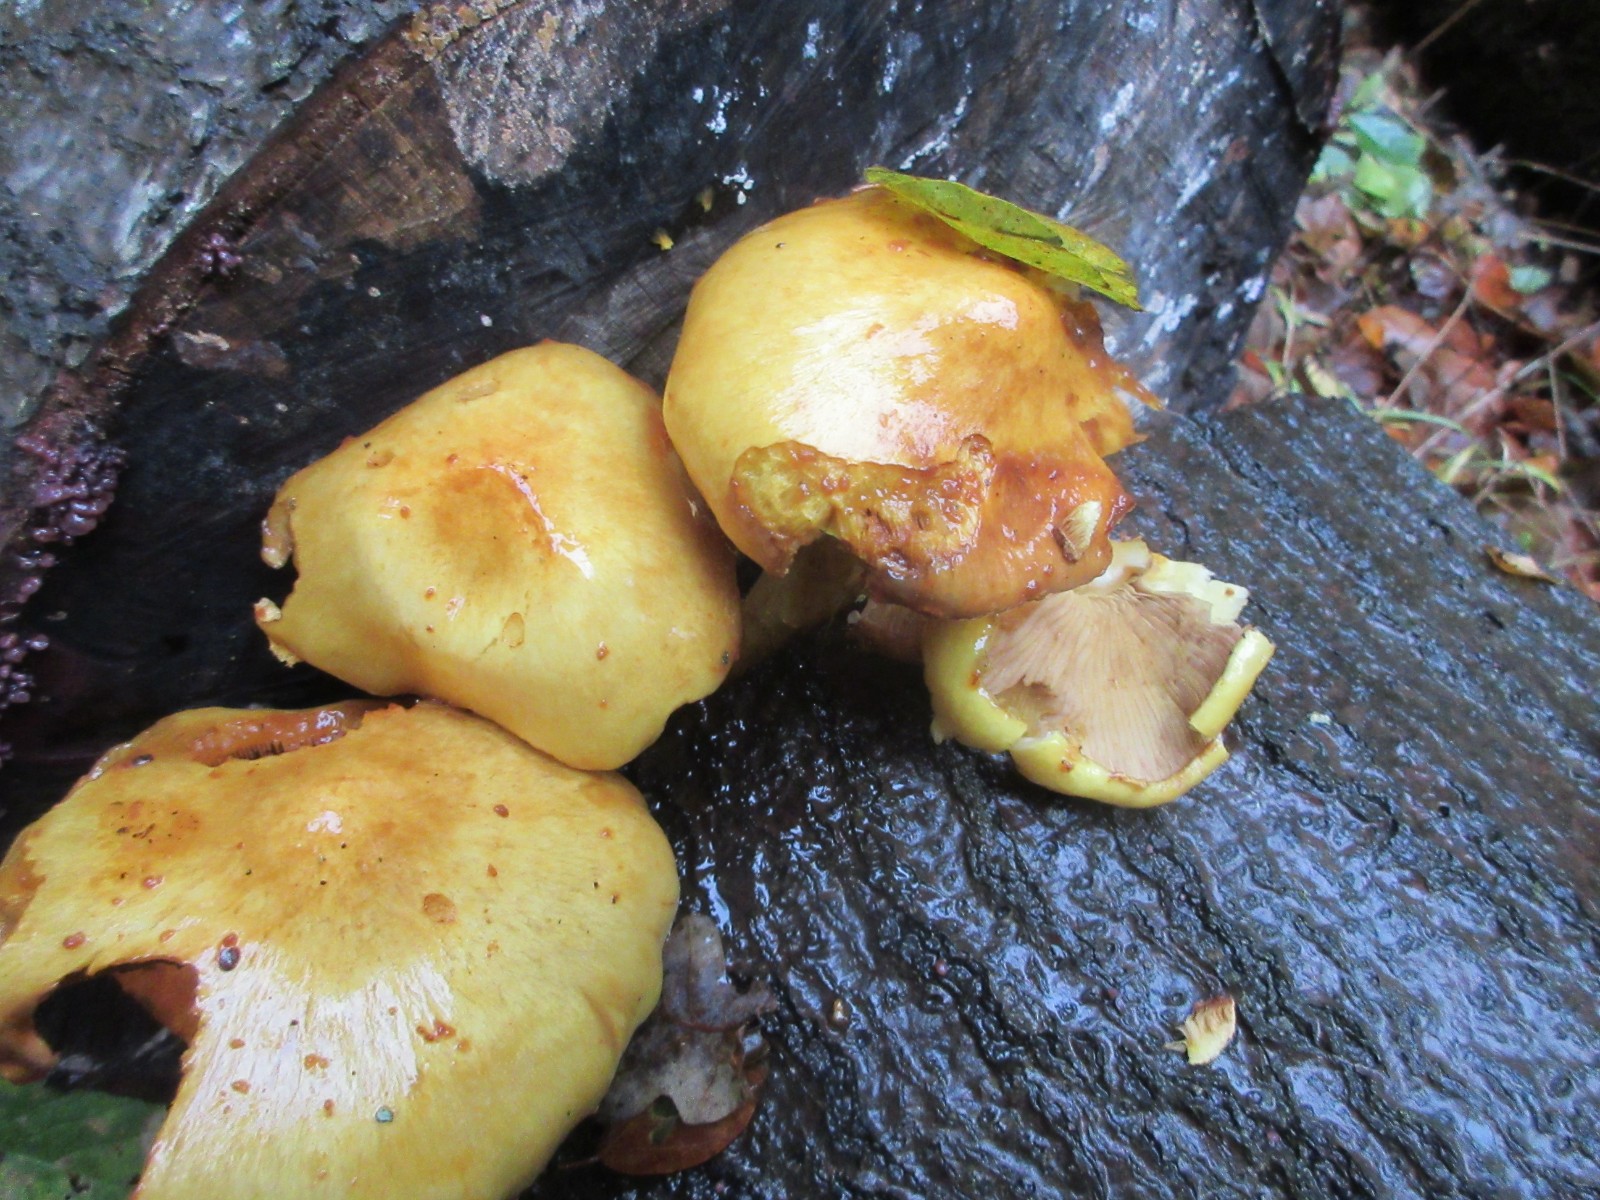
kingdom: Fungi
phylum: Basidiomycota
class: Agaricomycetes
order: Agaricales
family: Strophariaceae
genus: Pholiota
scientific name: Pholiota adiposa
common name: højtsiddende skælhat
